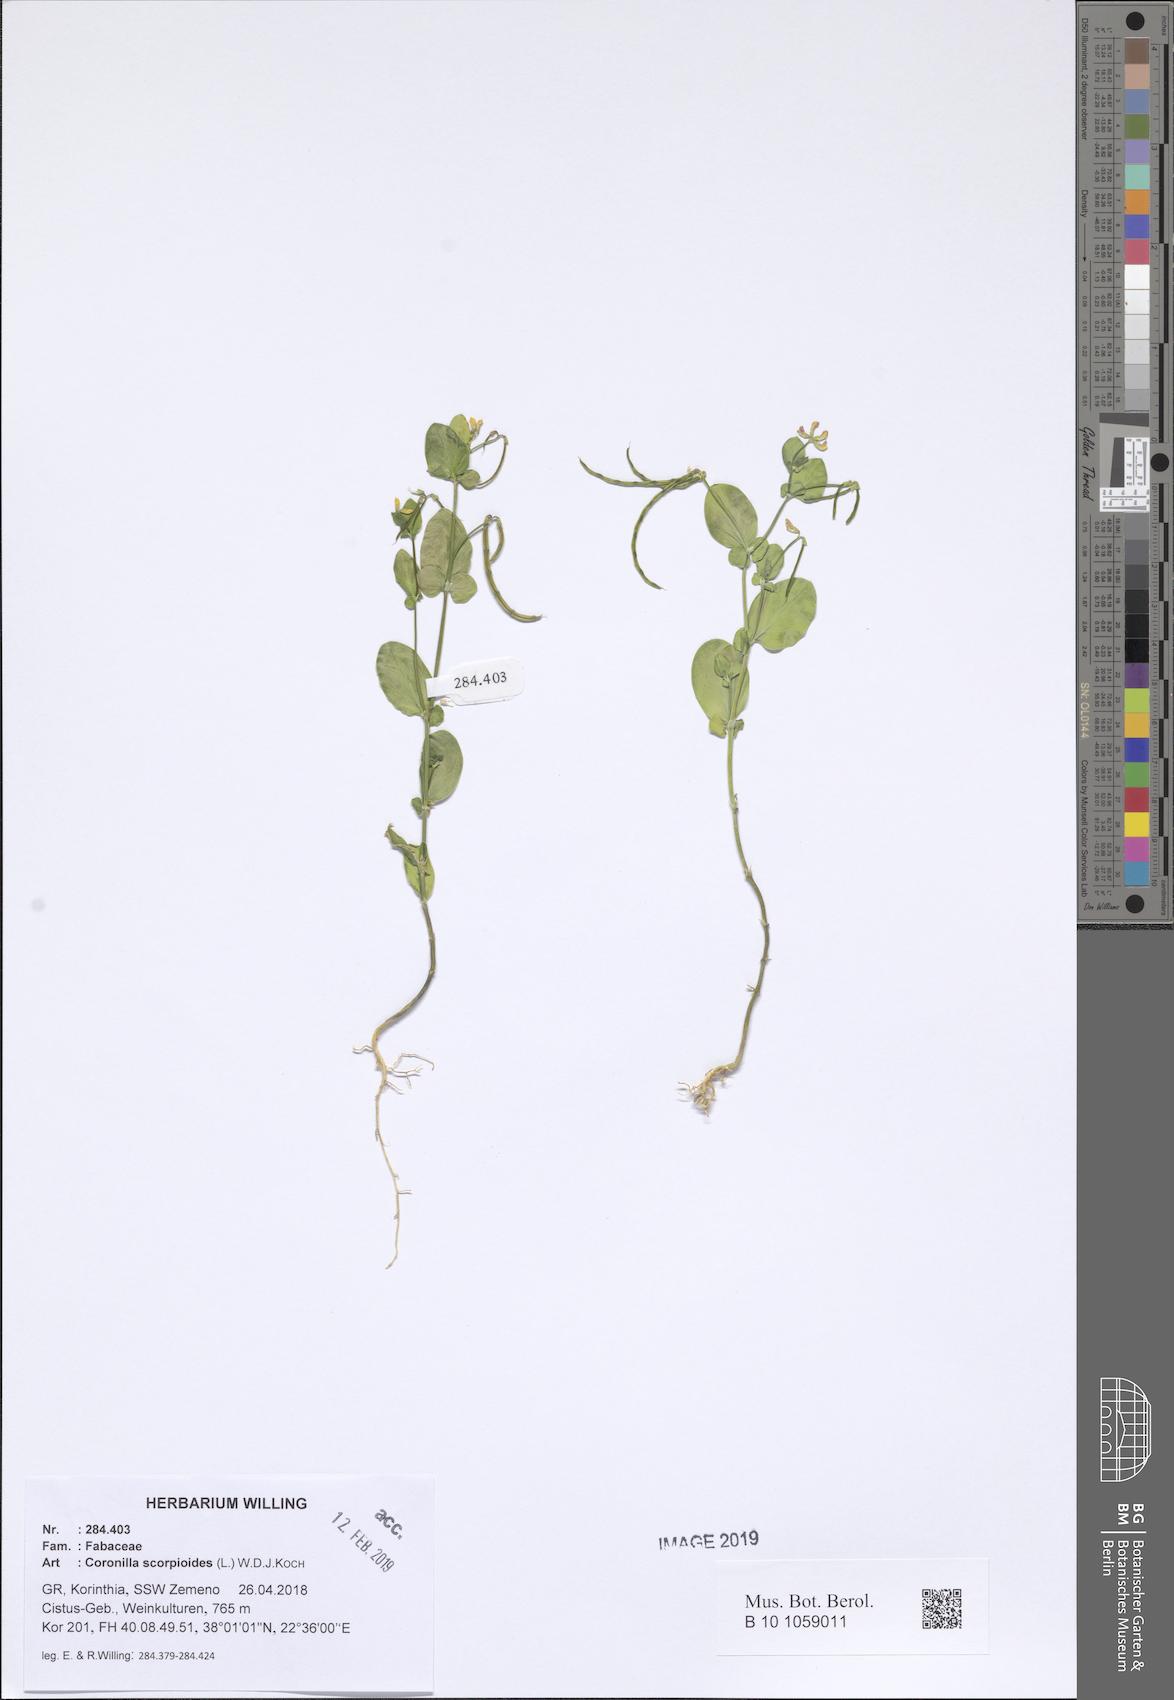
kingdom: Plantae
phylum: Tracheophyta
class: Magnoliopsida
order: Fabales
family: Fabaceae
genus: Coronilla
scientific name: Coronilla scorpioides
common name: Annual scorpion-vetch
